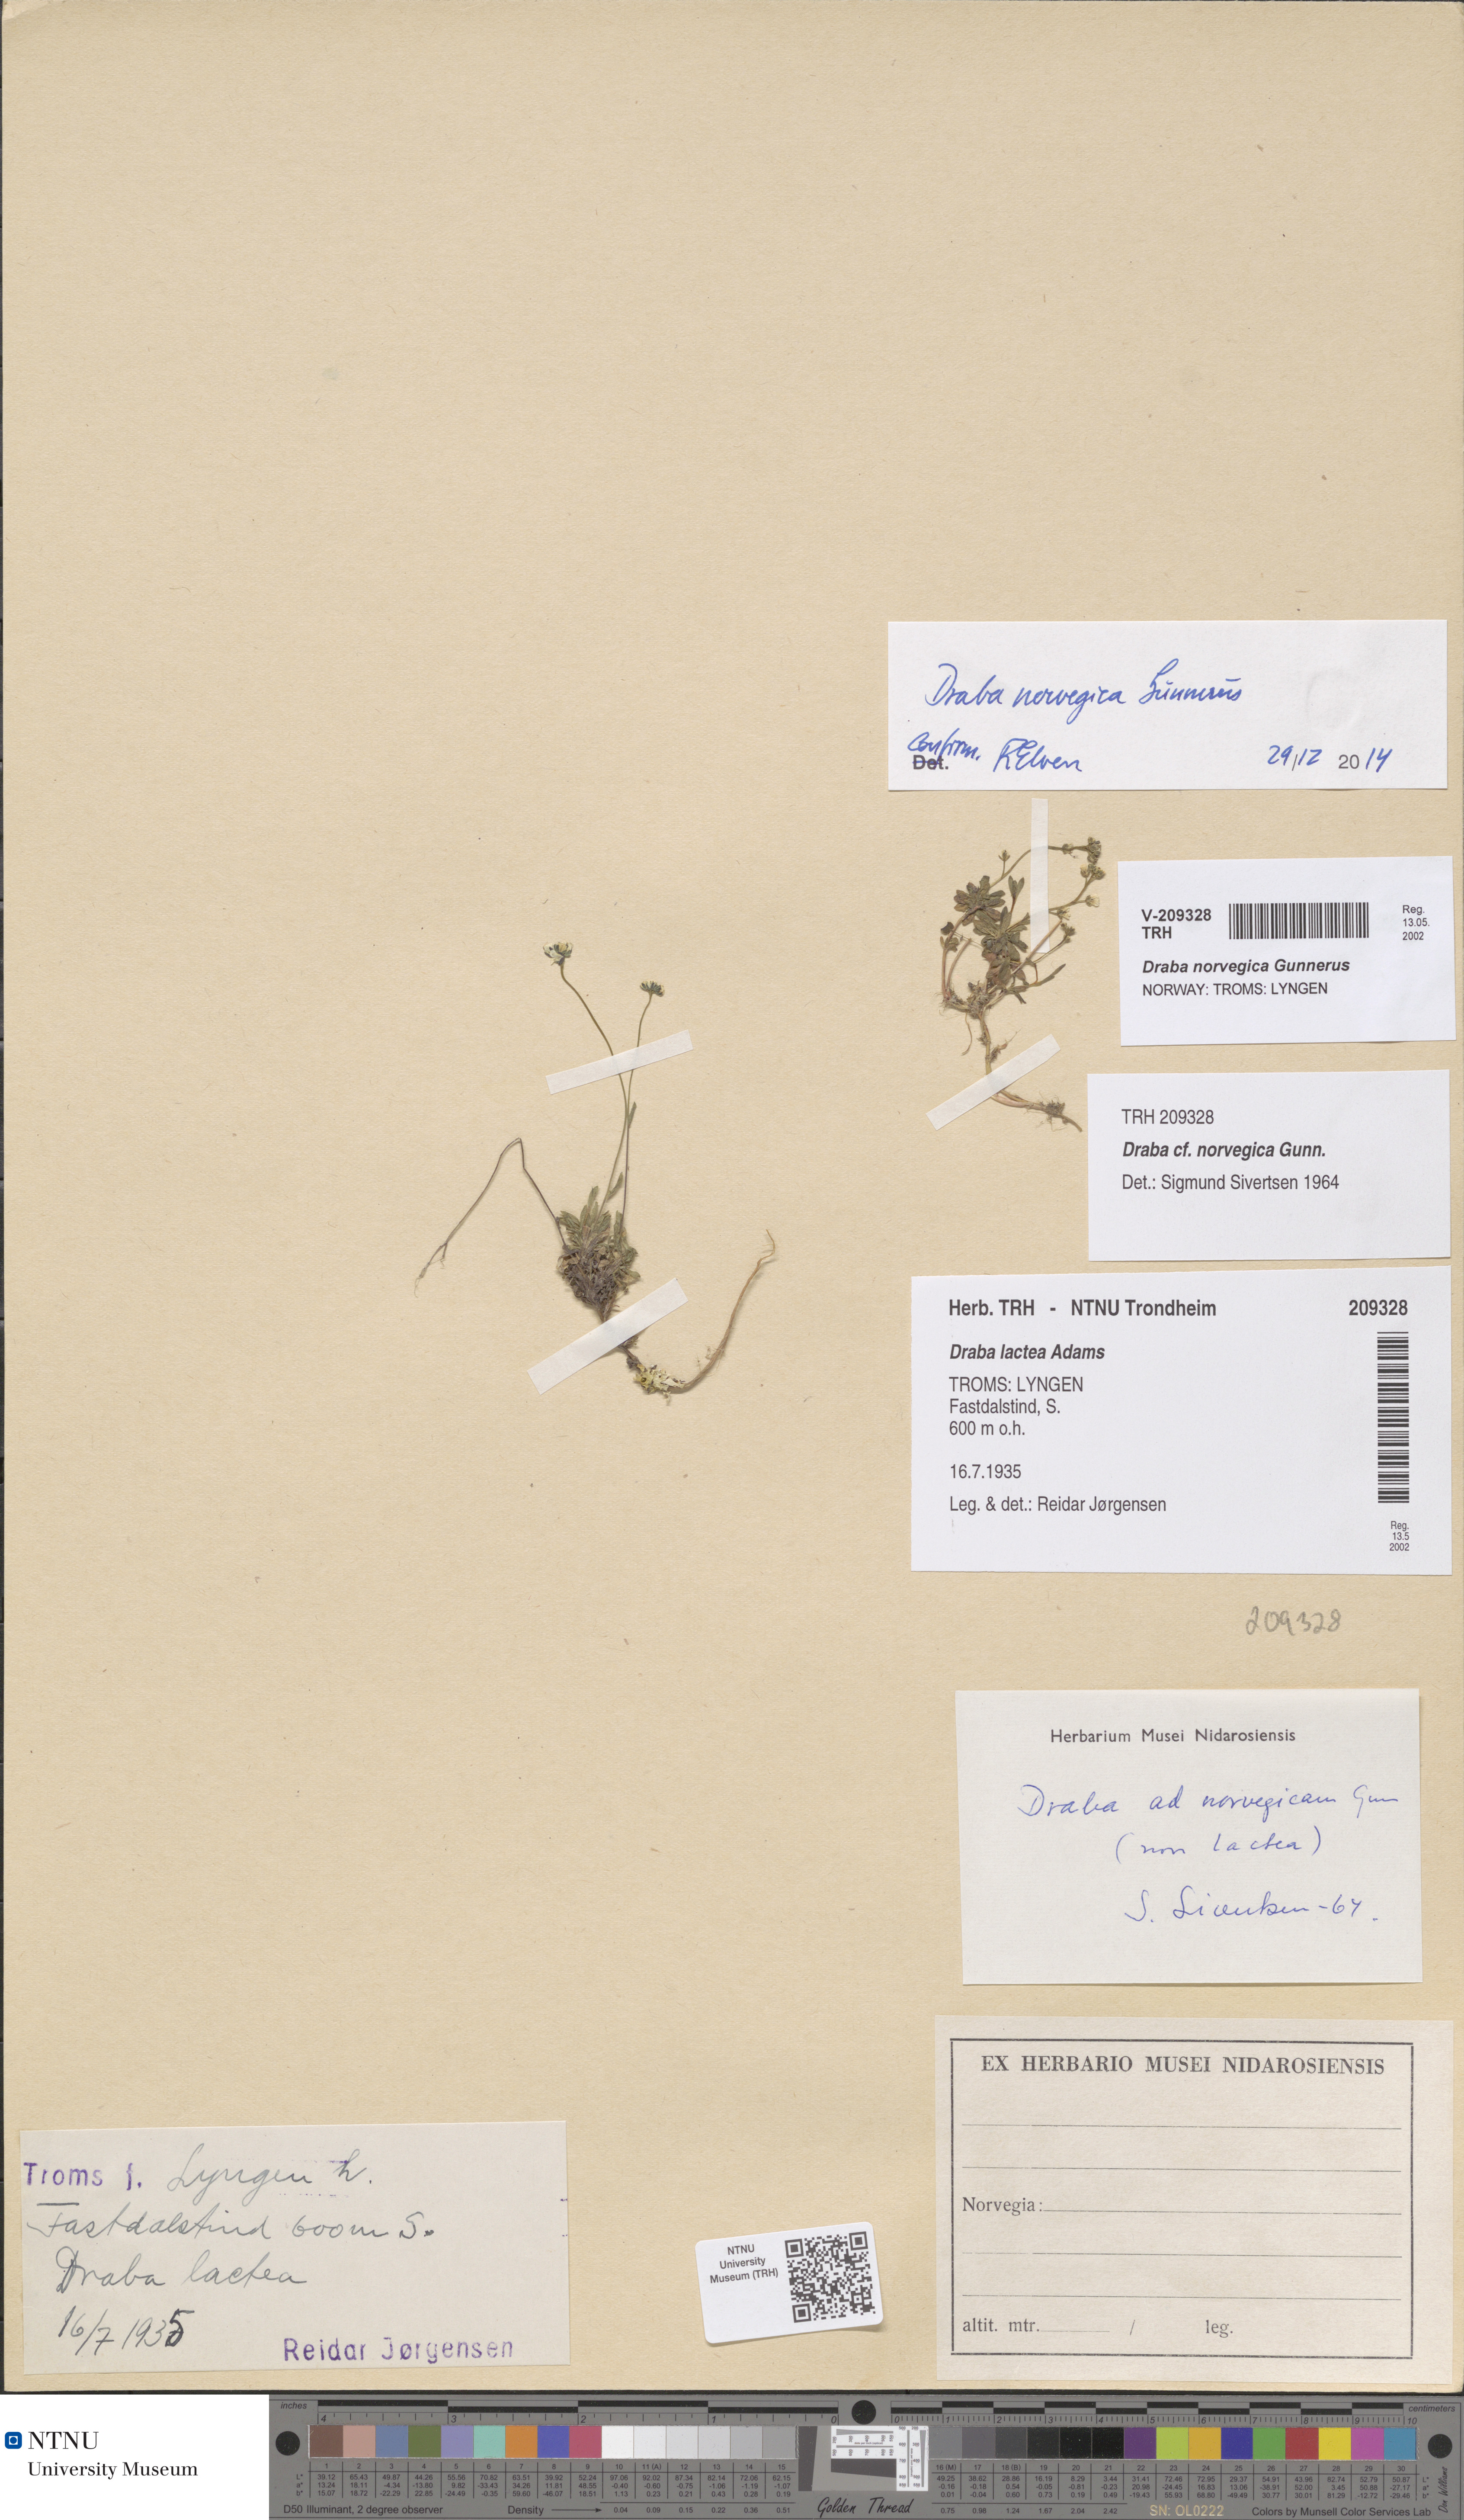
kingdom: Plantae
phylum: Tracheophyta
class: Magnoliopsida
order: Brassicales
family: Brassicaceae
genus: Draba
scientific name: Draba norvegica
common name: Rock whitlowgrass
